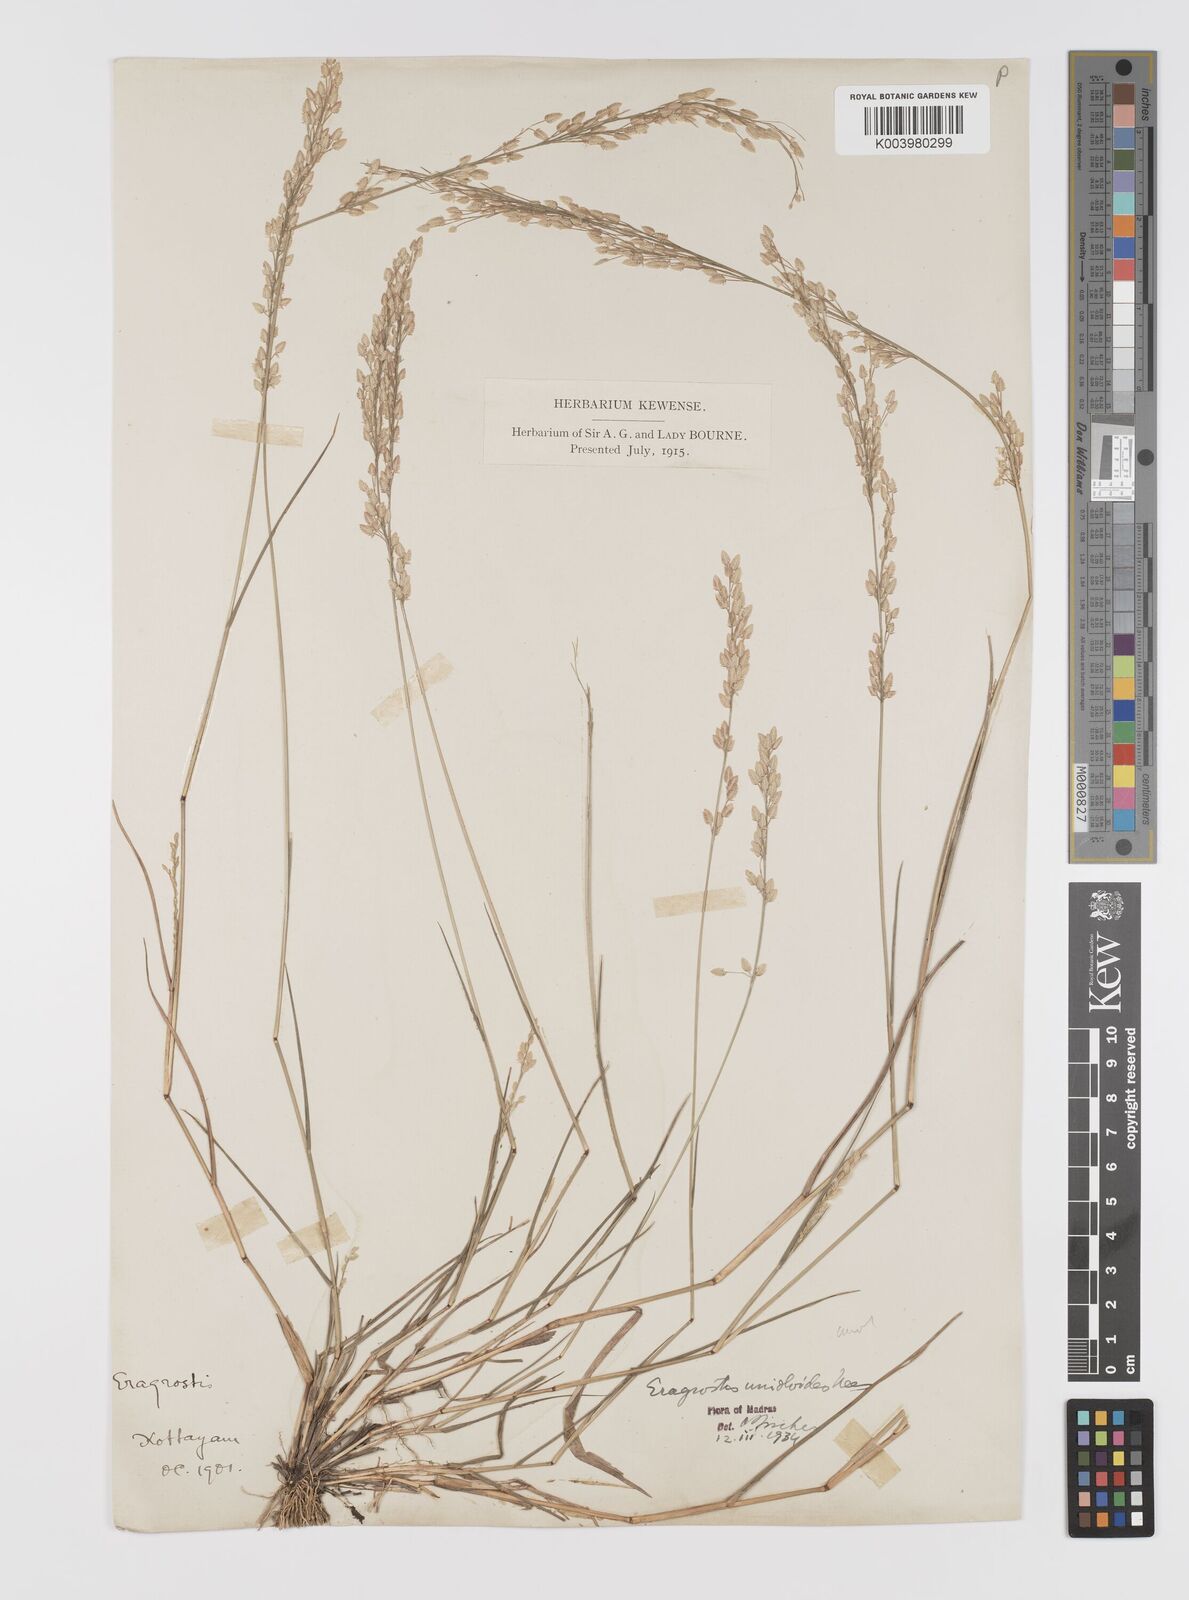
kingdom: Plantae
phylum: Tracheophyta
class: Liliopsida
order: Poales
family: Poaceae
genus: Eragrostis
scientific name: Eragrostis unioloides
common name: Chinese lovegrass
